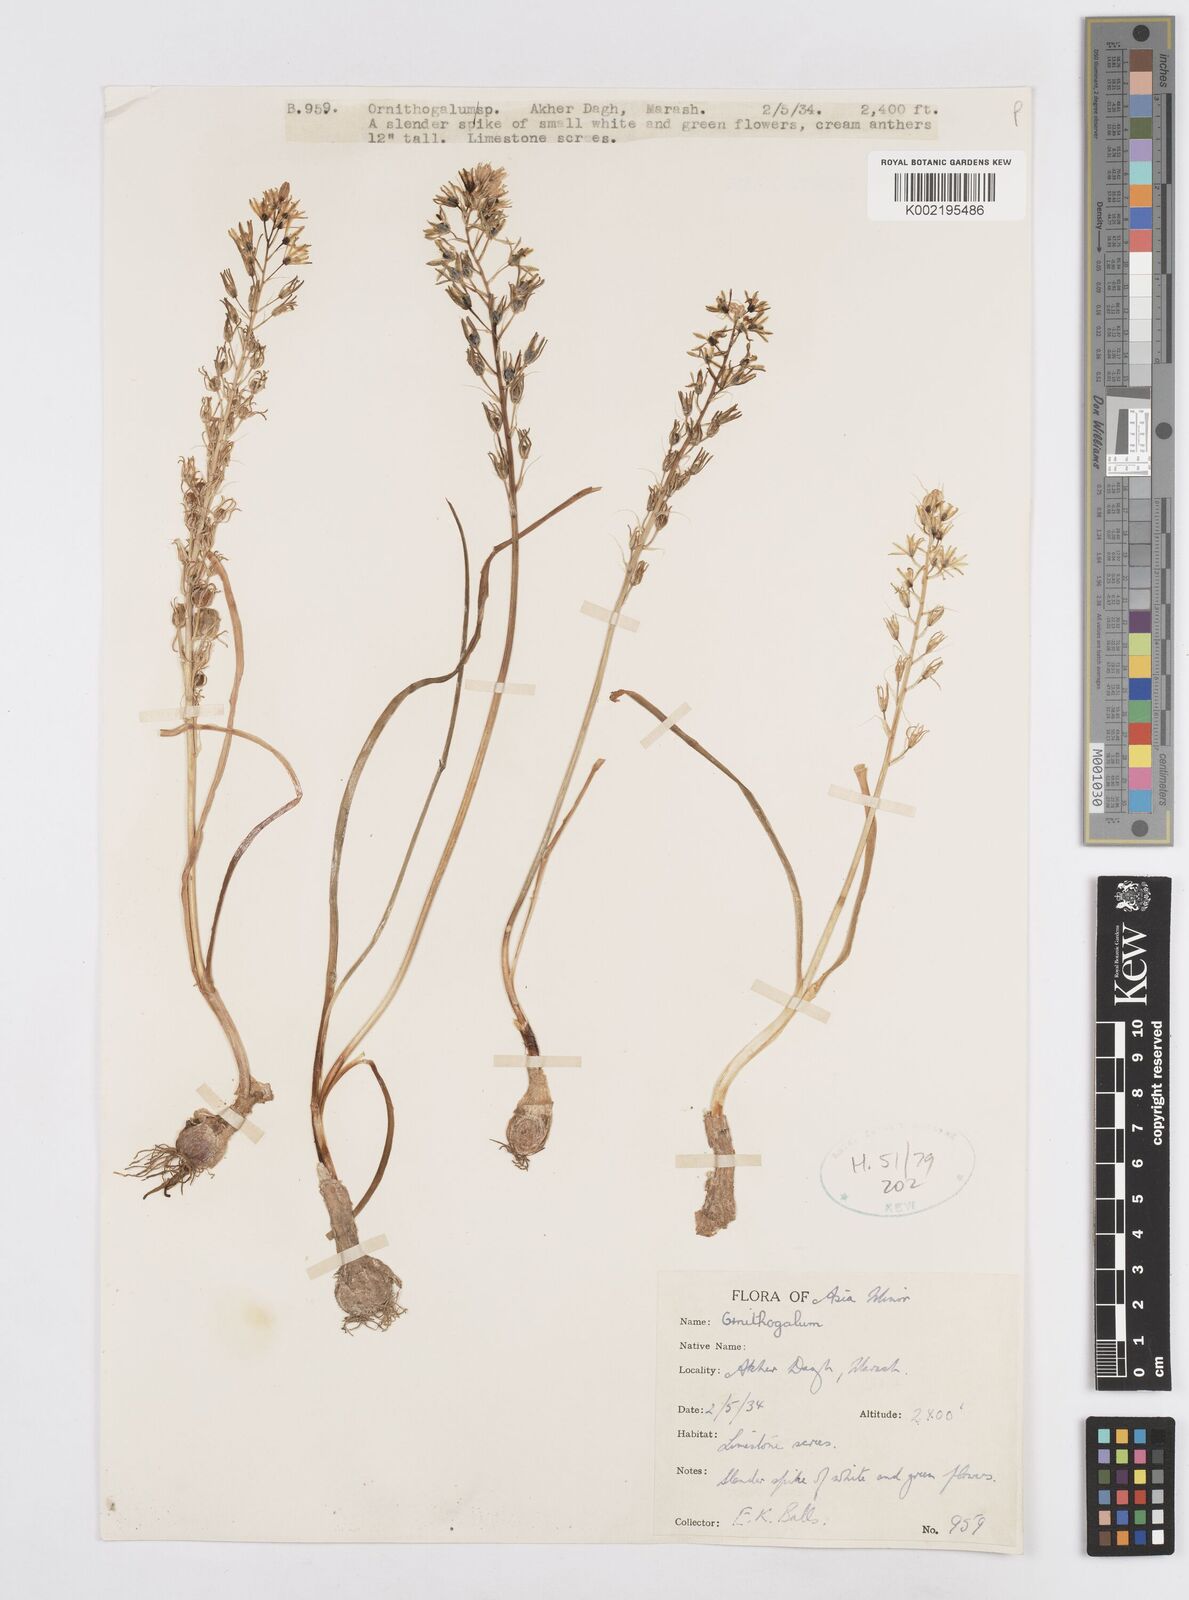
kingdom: Plantae
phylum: Tracheophyta
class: Liliopsida
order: Asparagales
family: Asparagaceae
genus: Ornithogalum
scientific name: Ornithogalum
